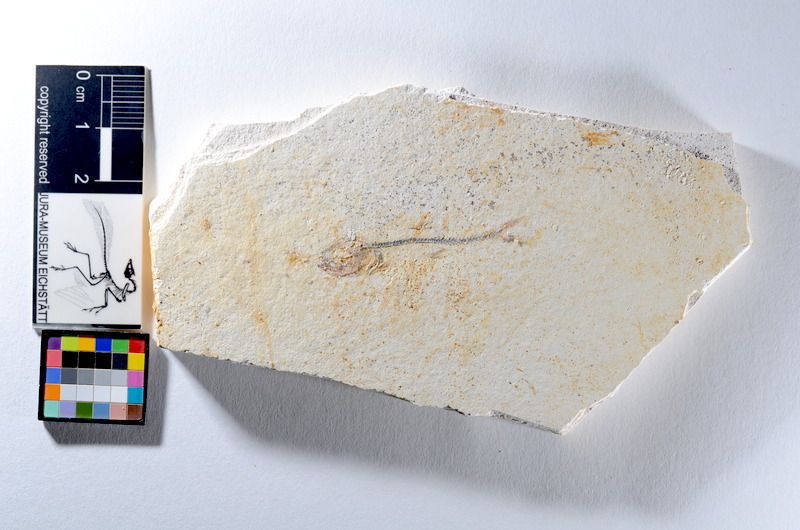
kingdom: Animalia
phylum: Chordata
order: Salmoniformes
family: Orthogonikleithridae
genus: Orthogonikleithrus
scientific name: Orthogonikleithrus hoelli
